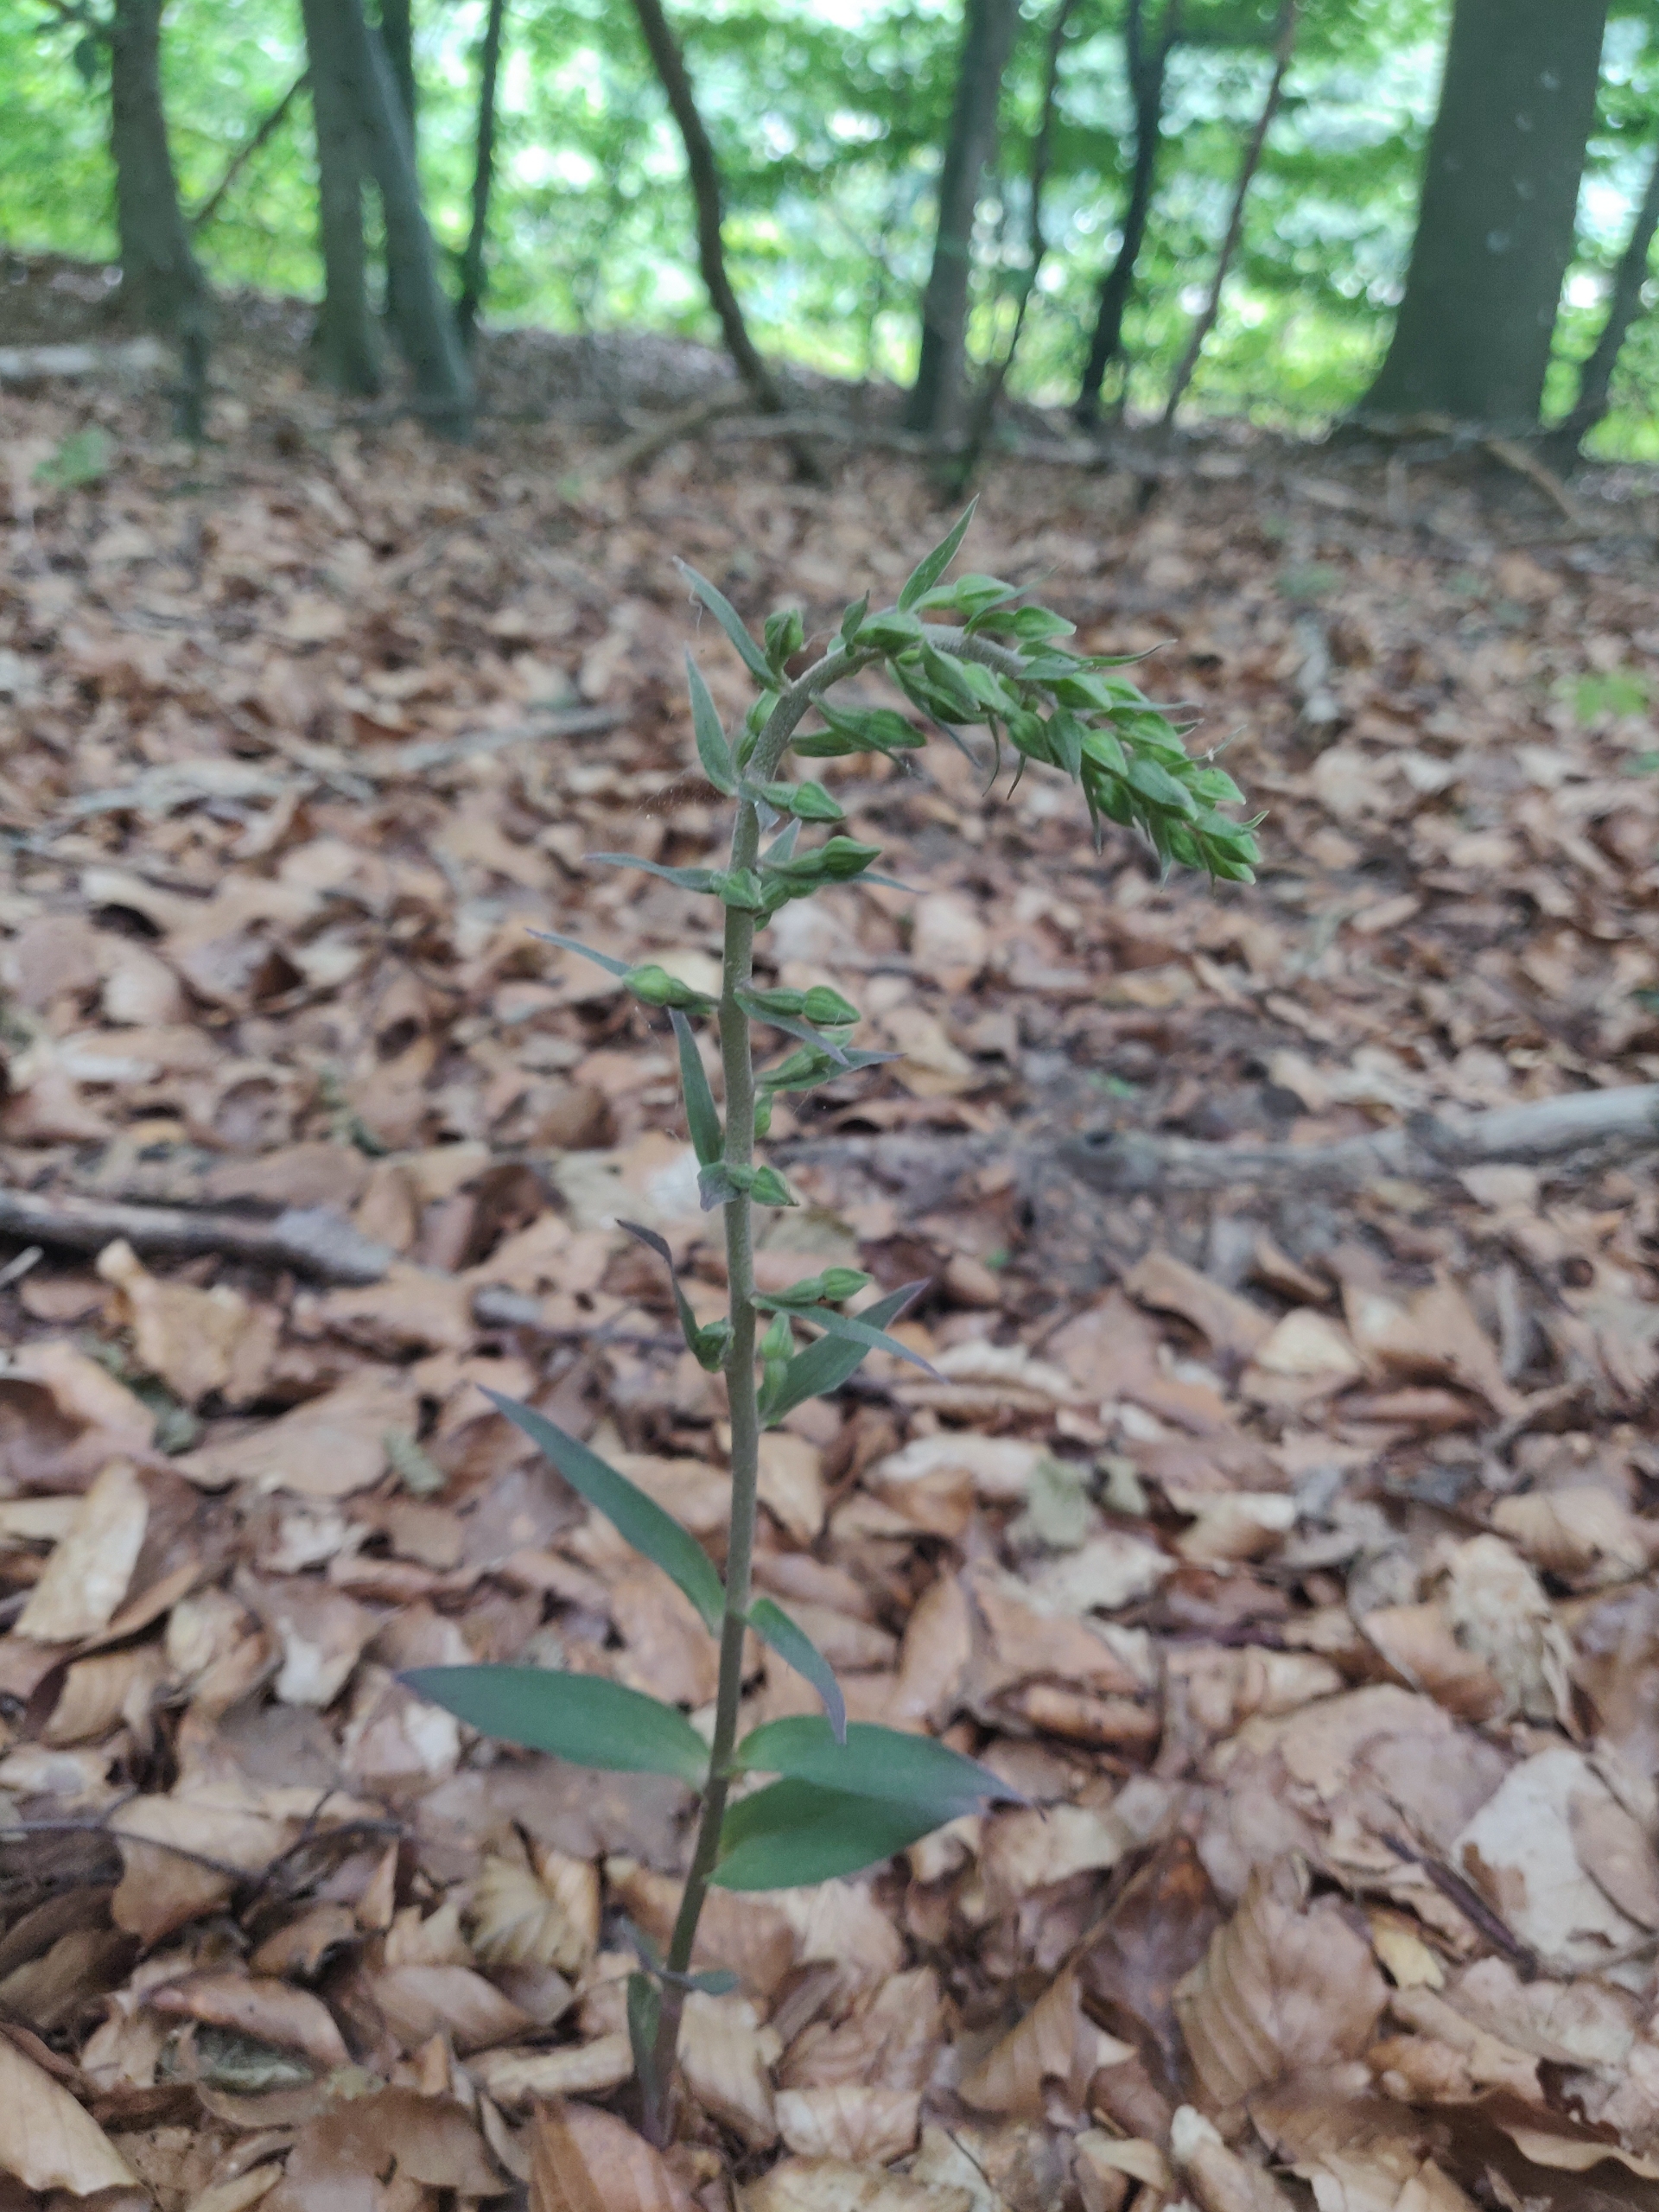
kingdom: Plantae
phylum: Tracheophyta
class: Liliopsida
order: Asparagales
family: Orchidaceae
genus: Epipactis
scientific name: Epipactis purpurata
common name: Tætblomstret hullæbe
